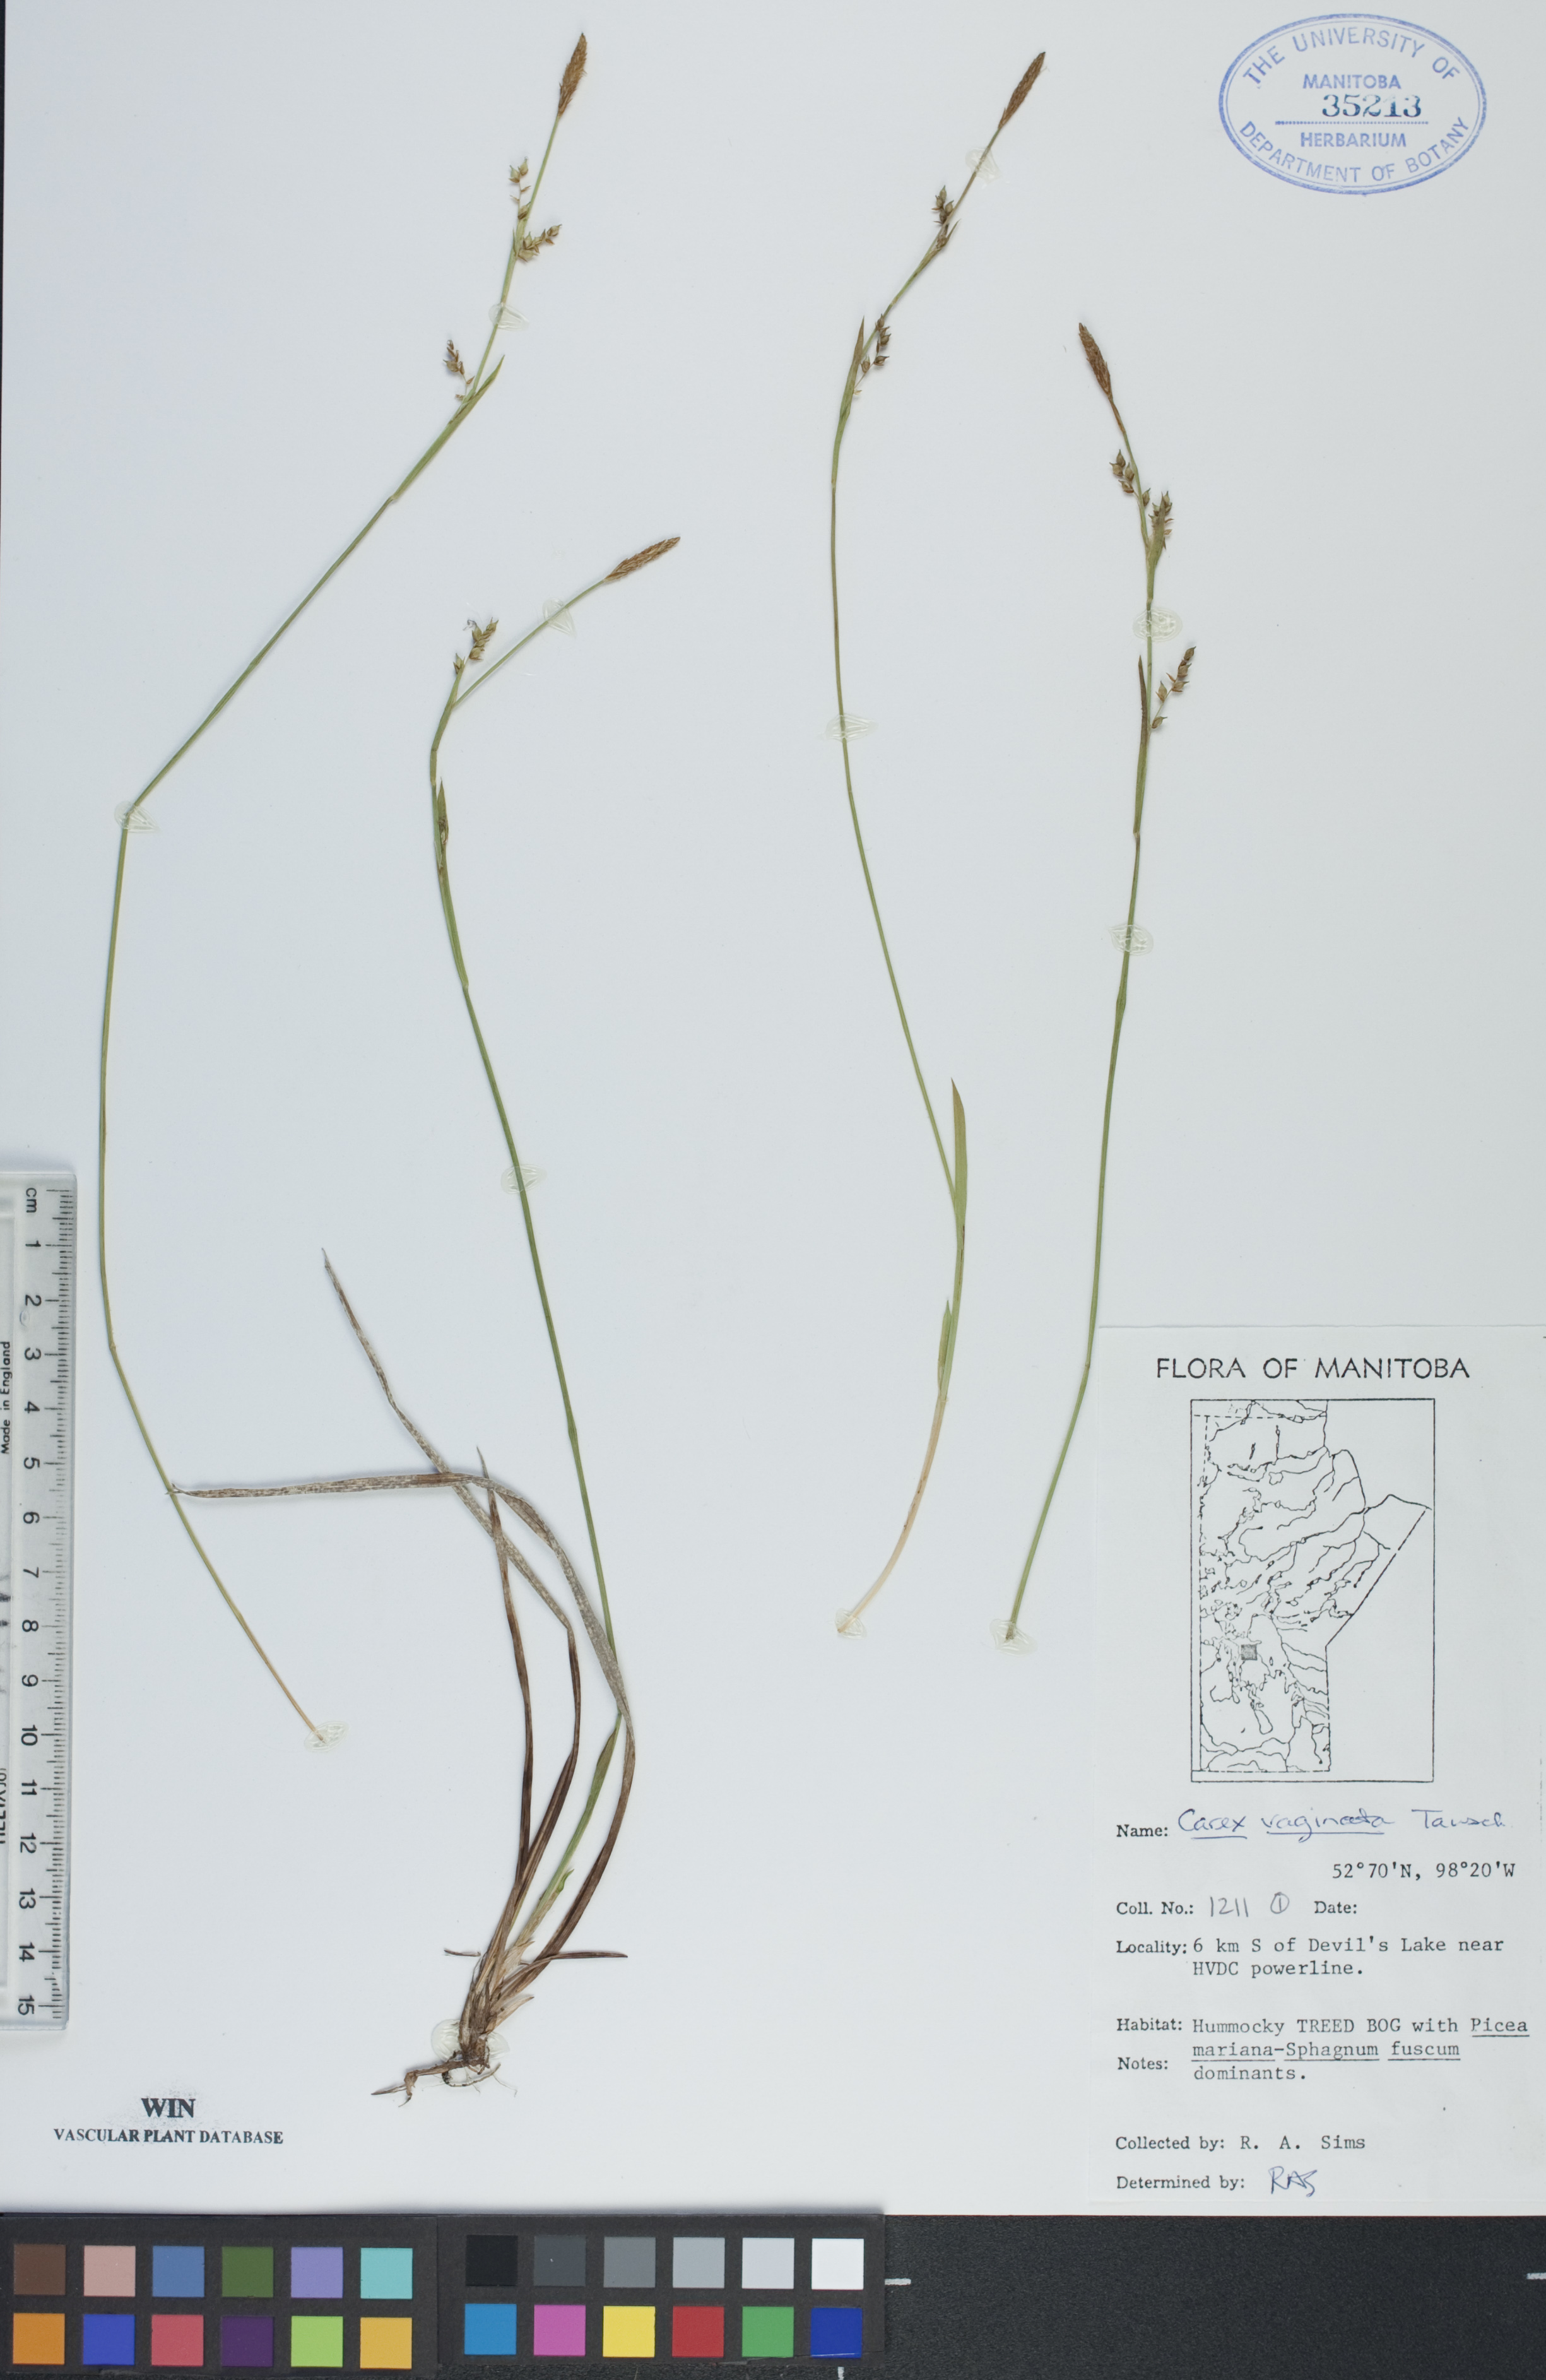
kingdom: Plantae
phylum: Tracheophyta
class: Liliopsida
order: Poales
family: Cyperaceae
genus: Carex
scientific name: Carex vaginata
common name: Sheathed sedge
